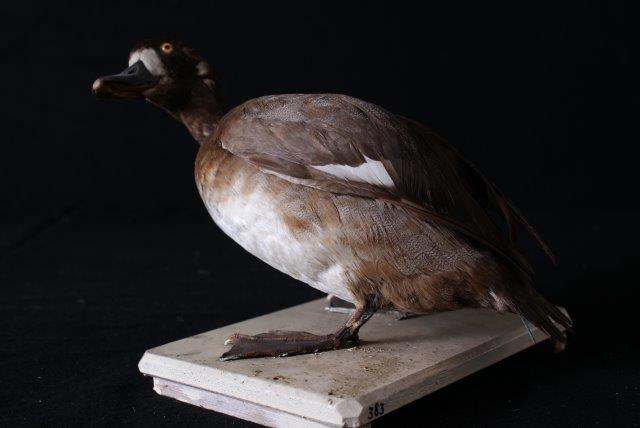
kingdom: Animalia
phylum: Chordata
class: Aves
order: Anseriformes
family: Anatidae
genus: Aythya
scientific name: Aythya marila
